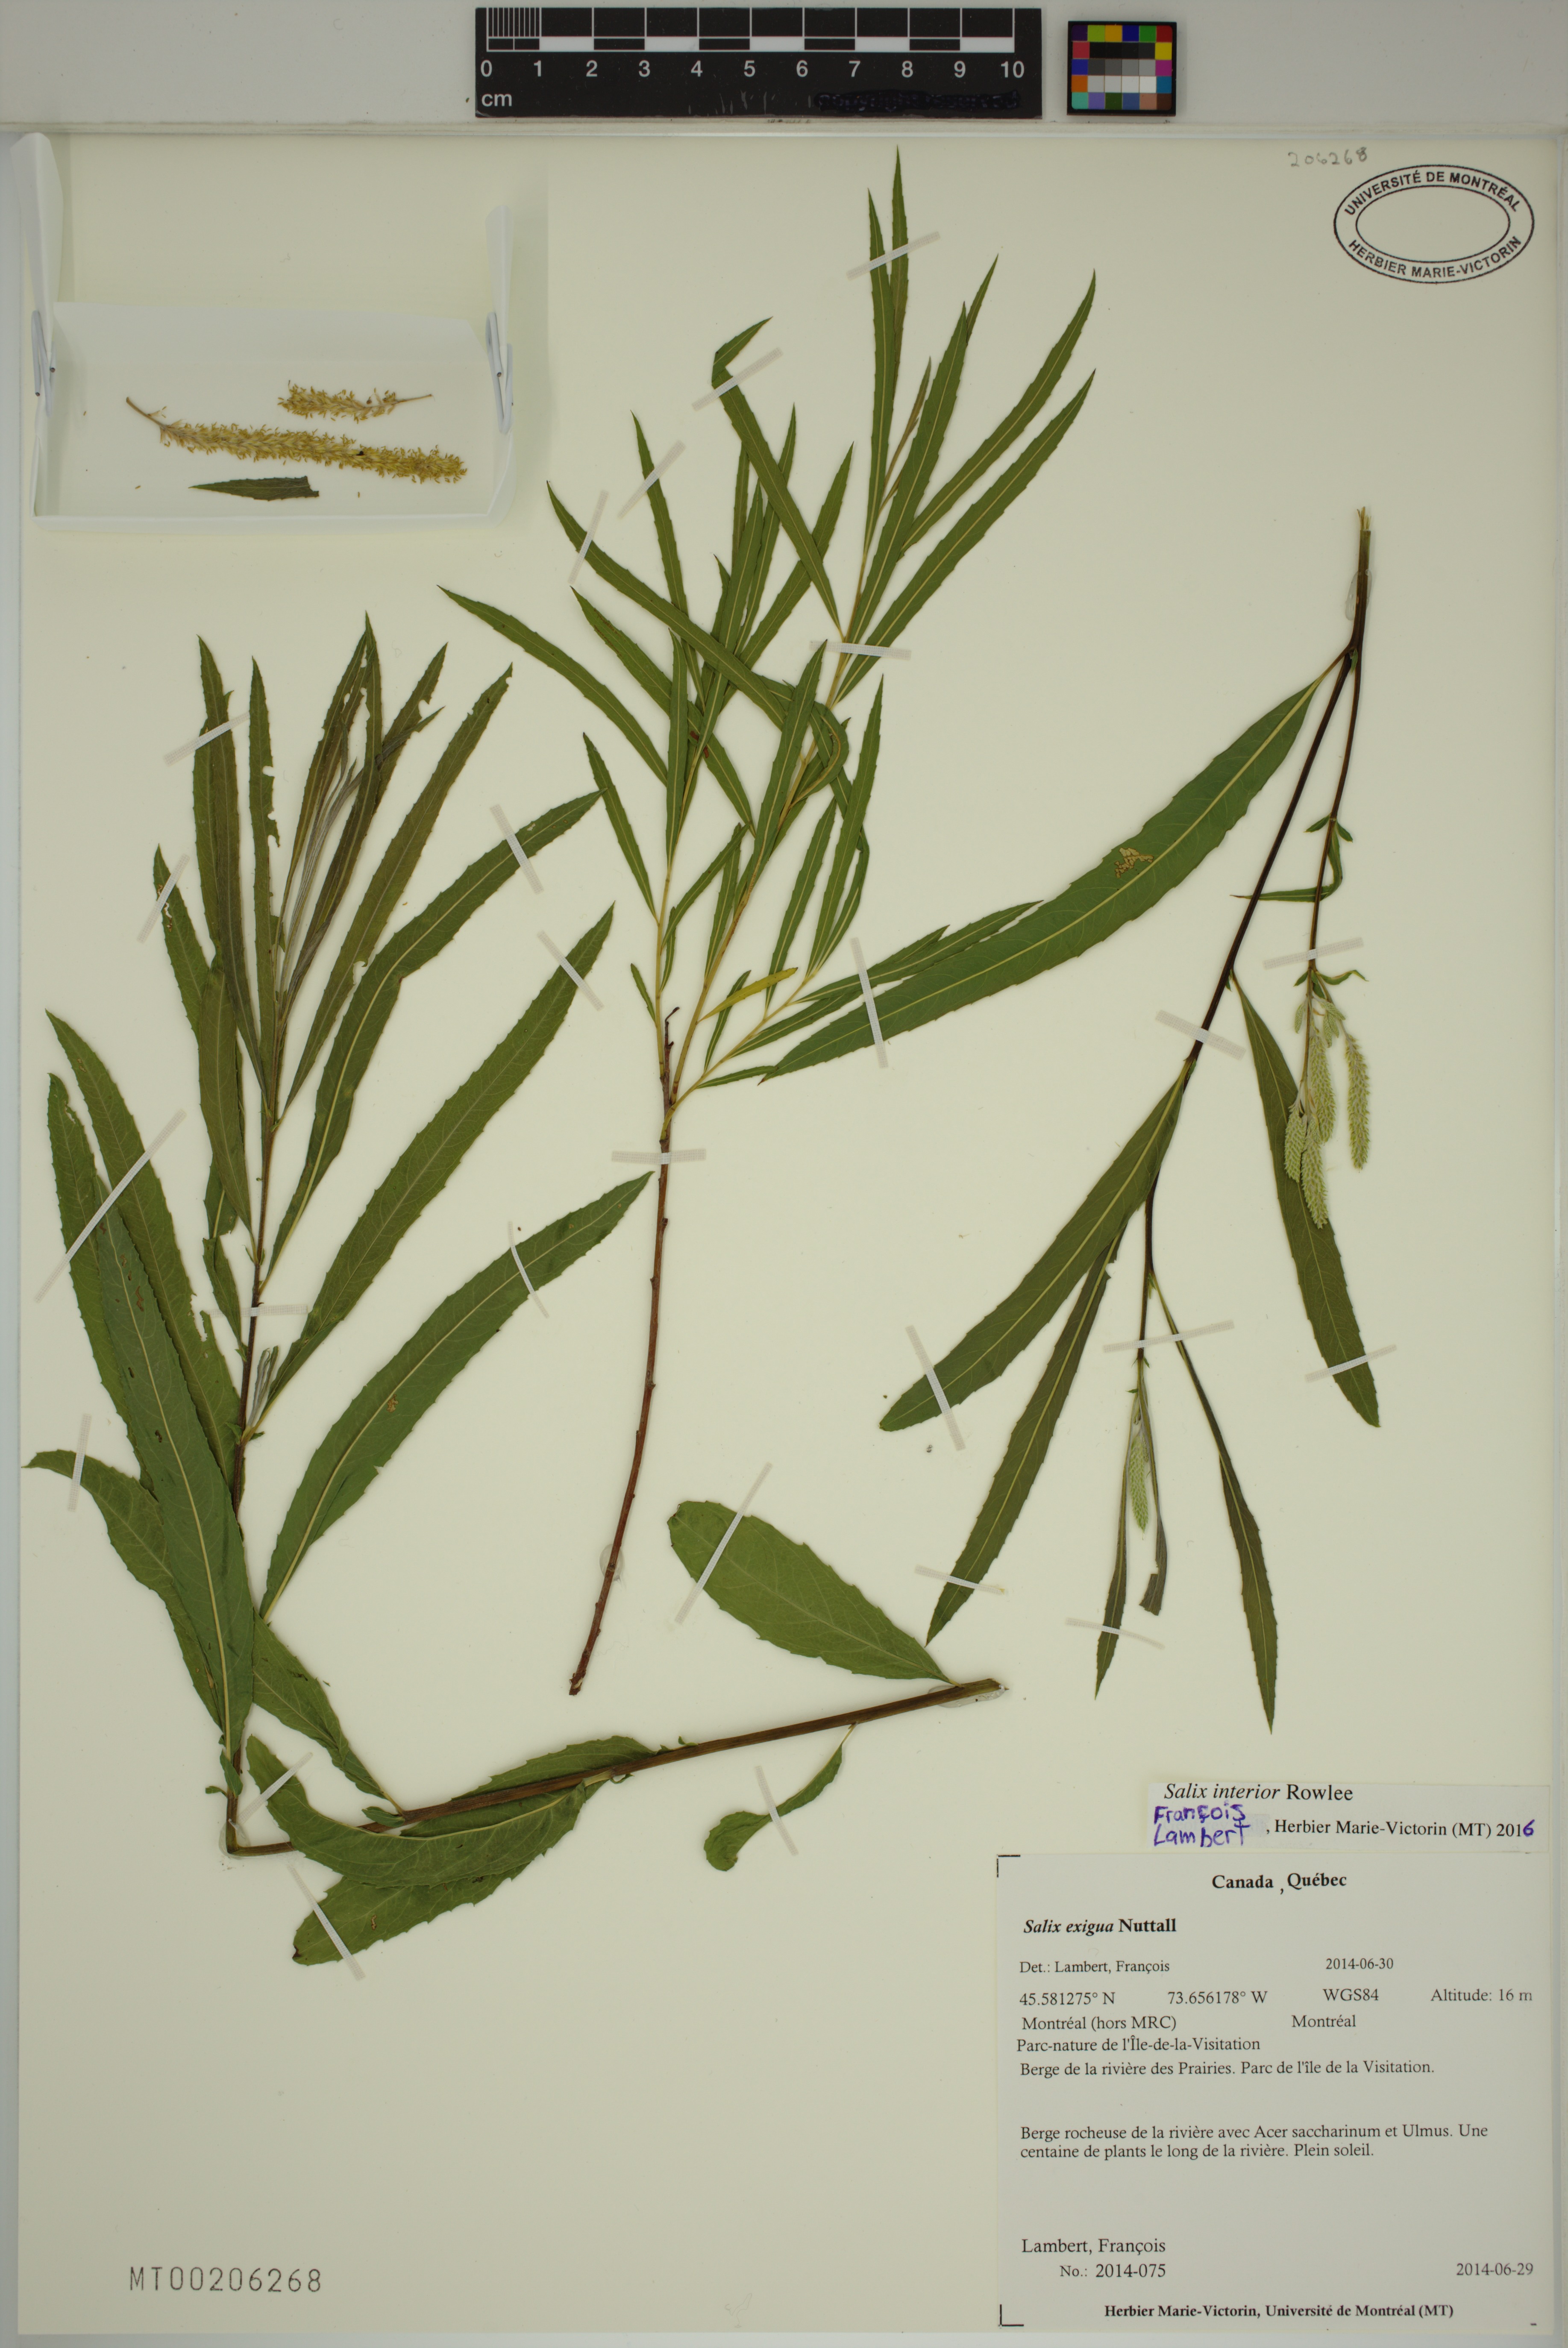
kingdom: Plantae
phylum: Tracheophyta
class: Magnoliopsida
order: Malpighiales
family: Salicaceae
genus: Salix
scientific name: Salix interior
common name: Sandbar willow
